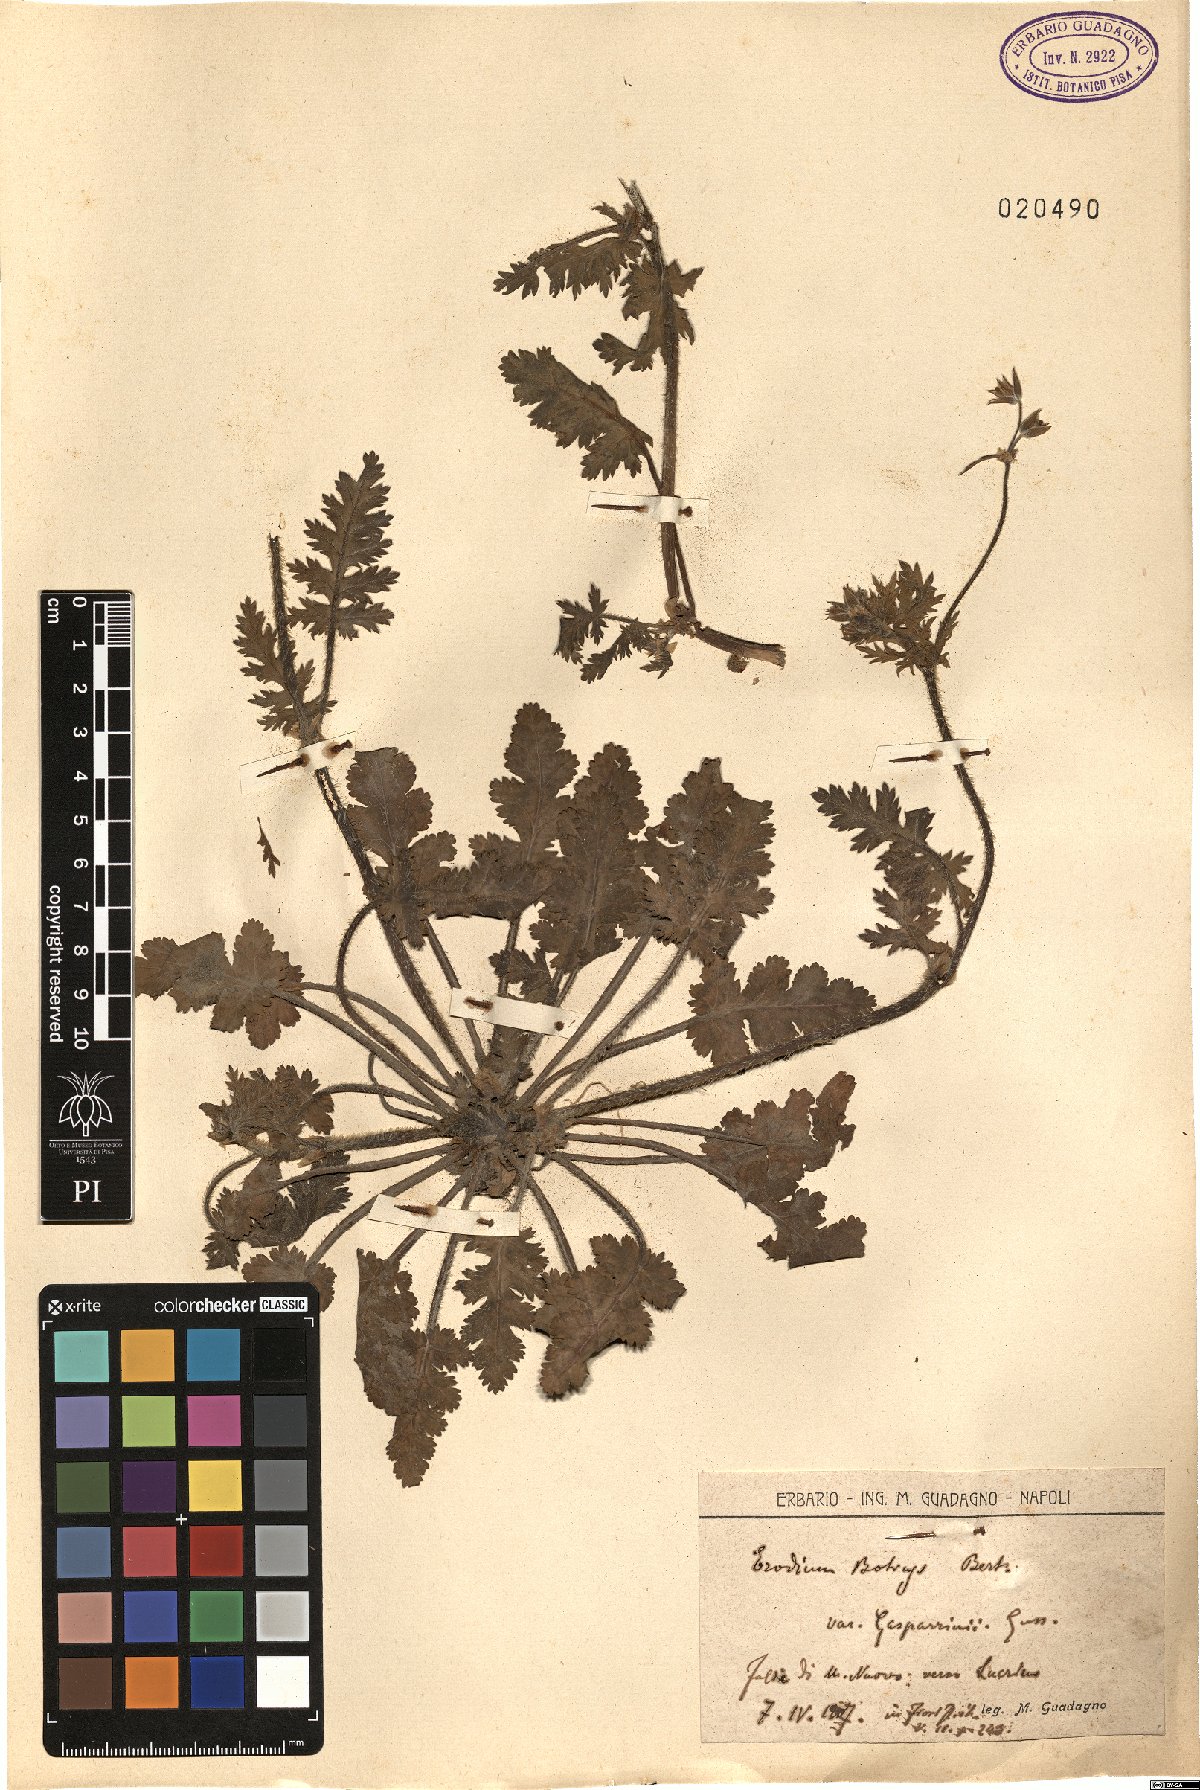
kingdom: Plantae
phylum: Tracheophyta
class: Magnoliopsida
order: Geraniales
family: Geraniaceae
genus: Erodium
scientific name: Erodium botrys
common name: Mediterranean stork's-bill
